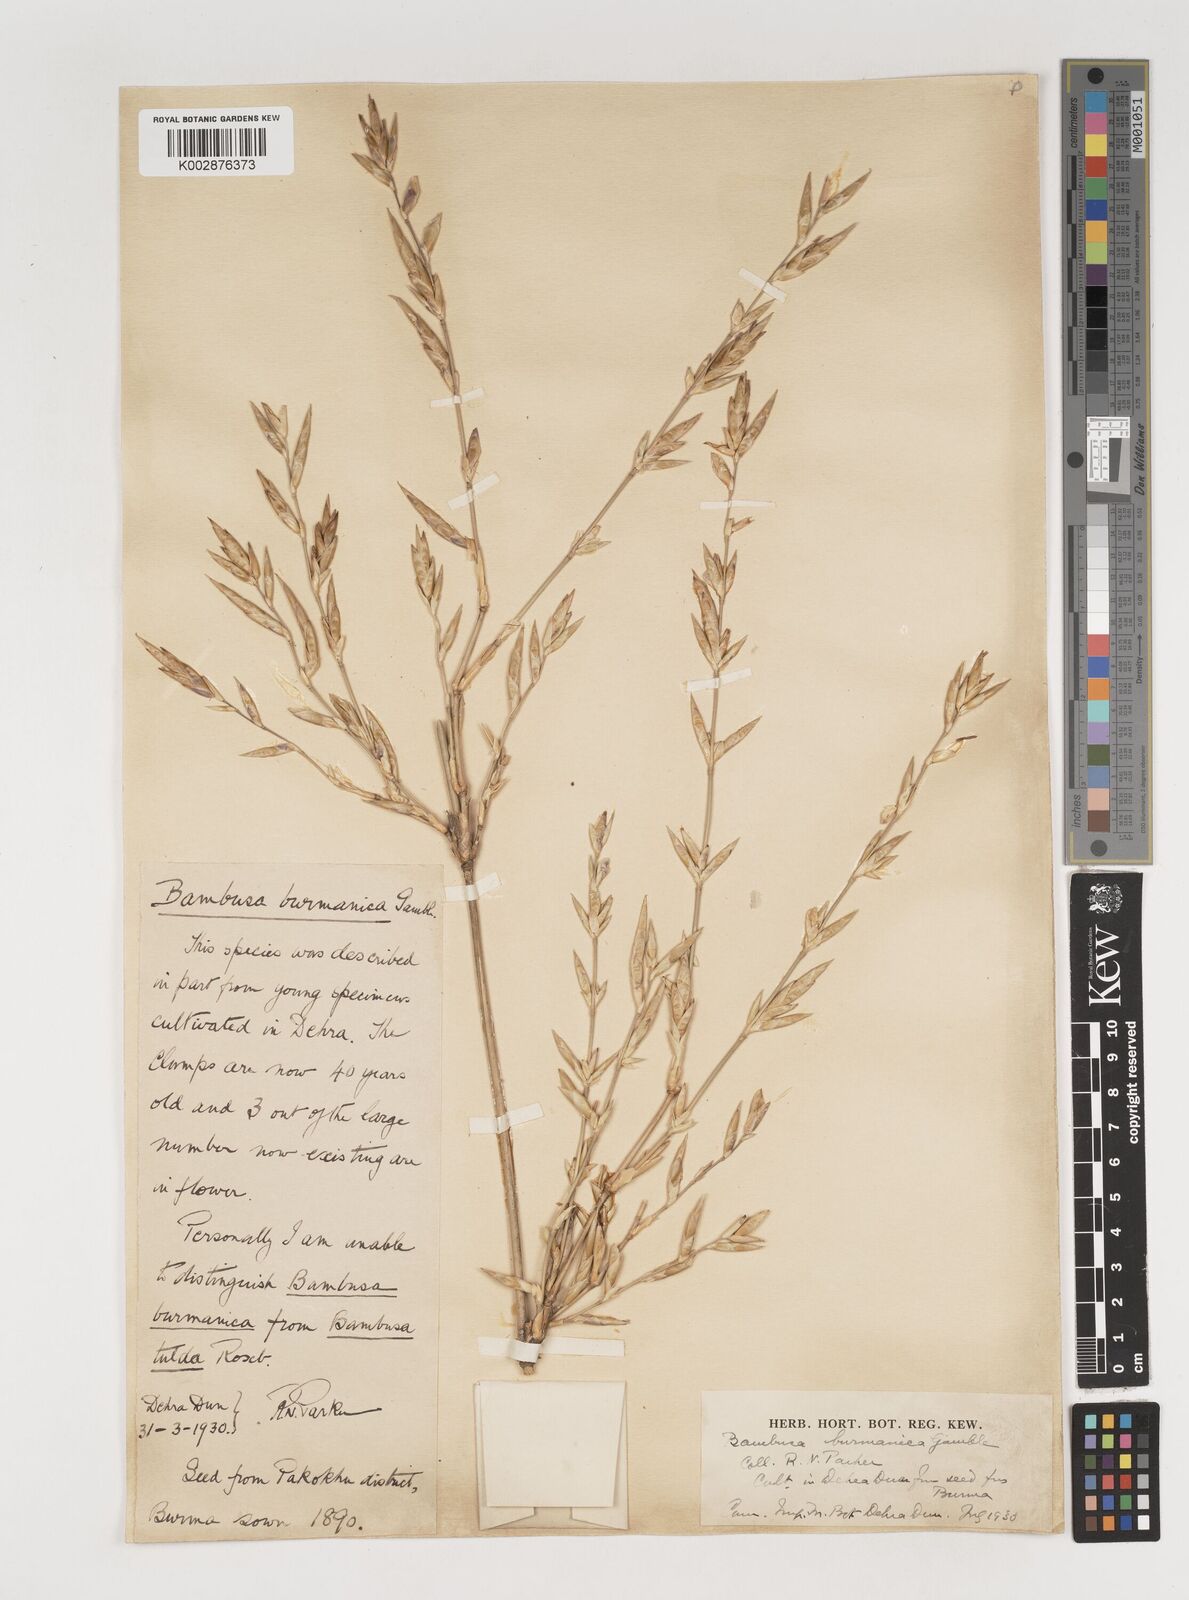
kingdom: Plantae
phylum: Tracheophyta
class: Liliopsida
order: Poales
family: Poaceae
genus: Bambusa
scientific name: Bambusa burmanica
